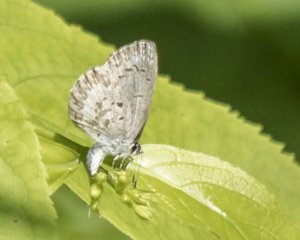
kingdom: Animalia
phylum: Arthropoda
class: Insecta
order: Lepidoptera
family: Lycaenidae
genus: Celastrina
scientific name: Celastrina serotina
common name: Cherry Gall Azure
